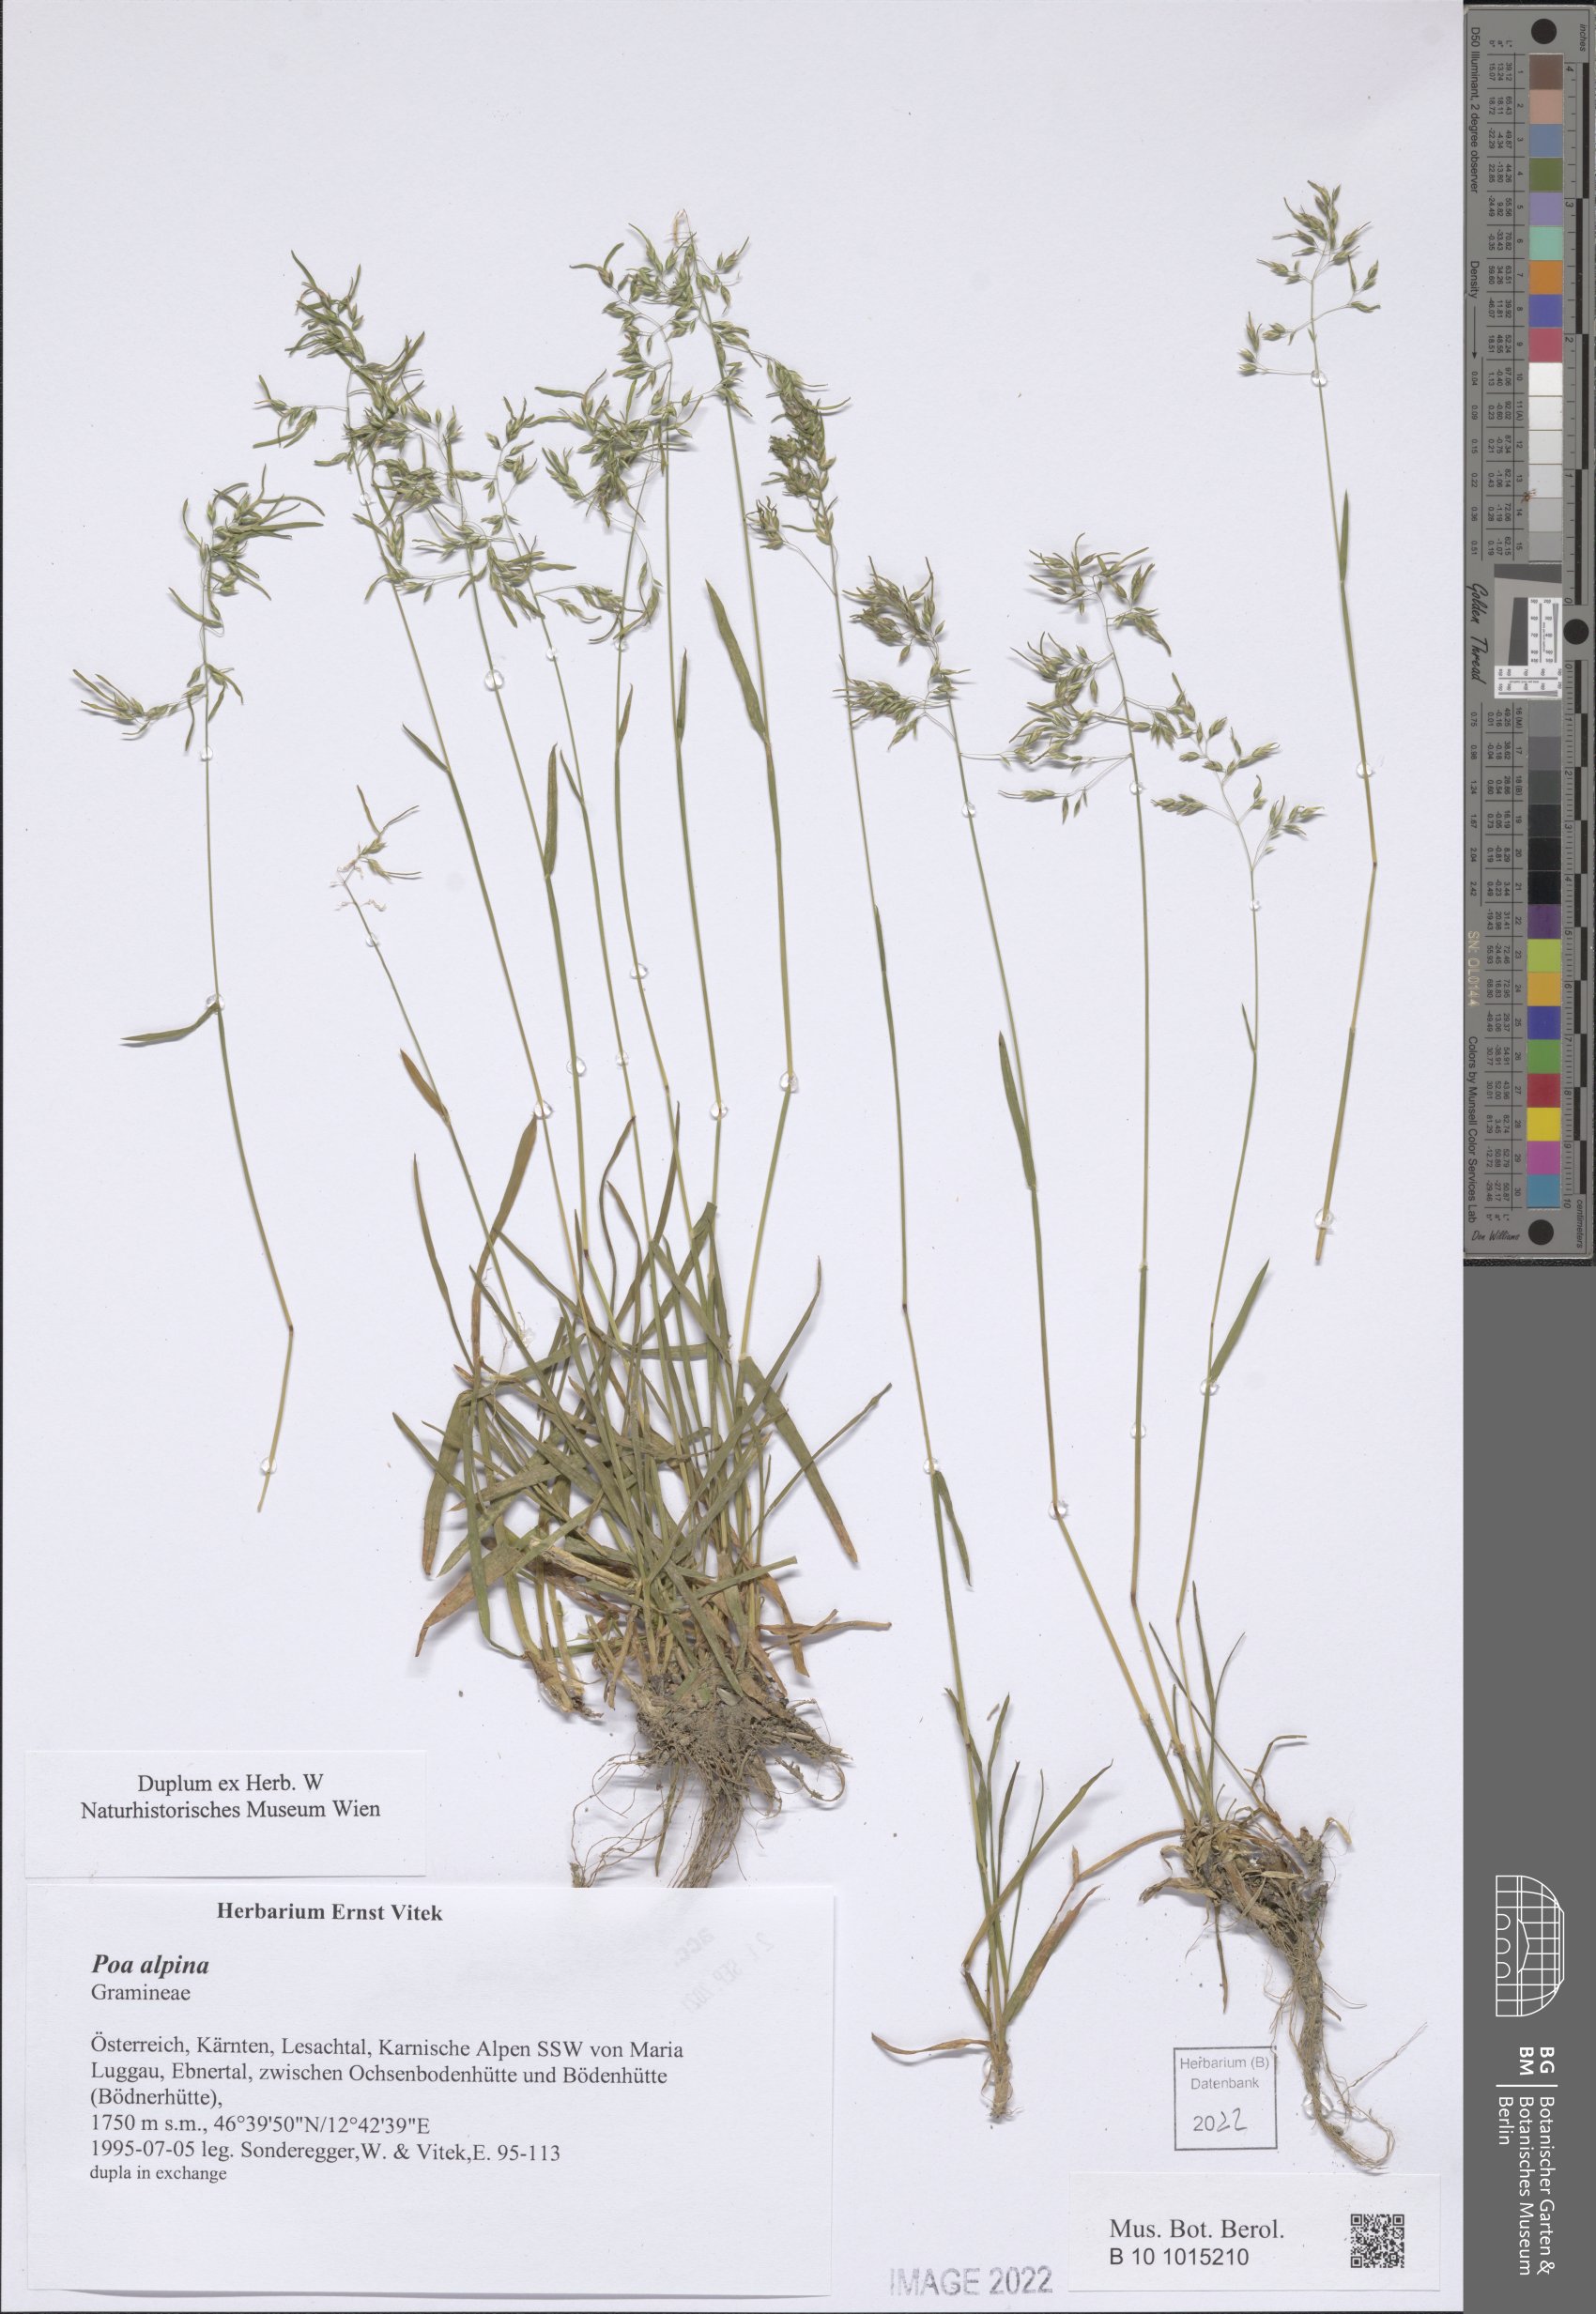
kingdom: Plantae
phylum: Tracheophyta
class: Liliopsida
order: Poales
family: Poaceae
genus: Poa
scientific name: Poa alpina
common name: Alpine bluegrass
